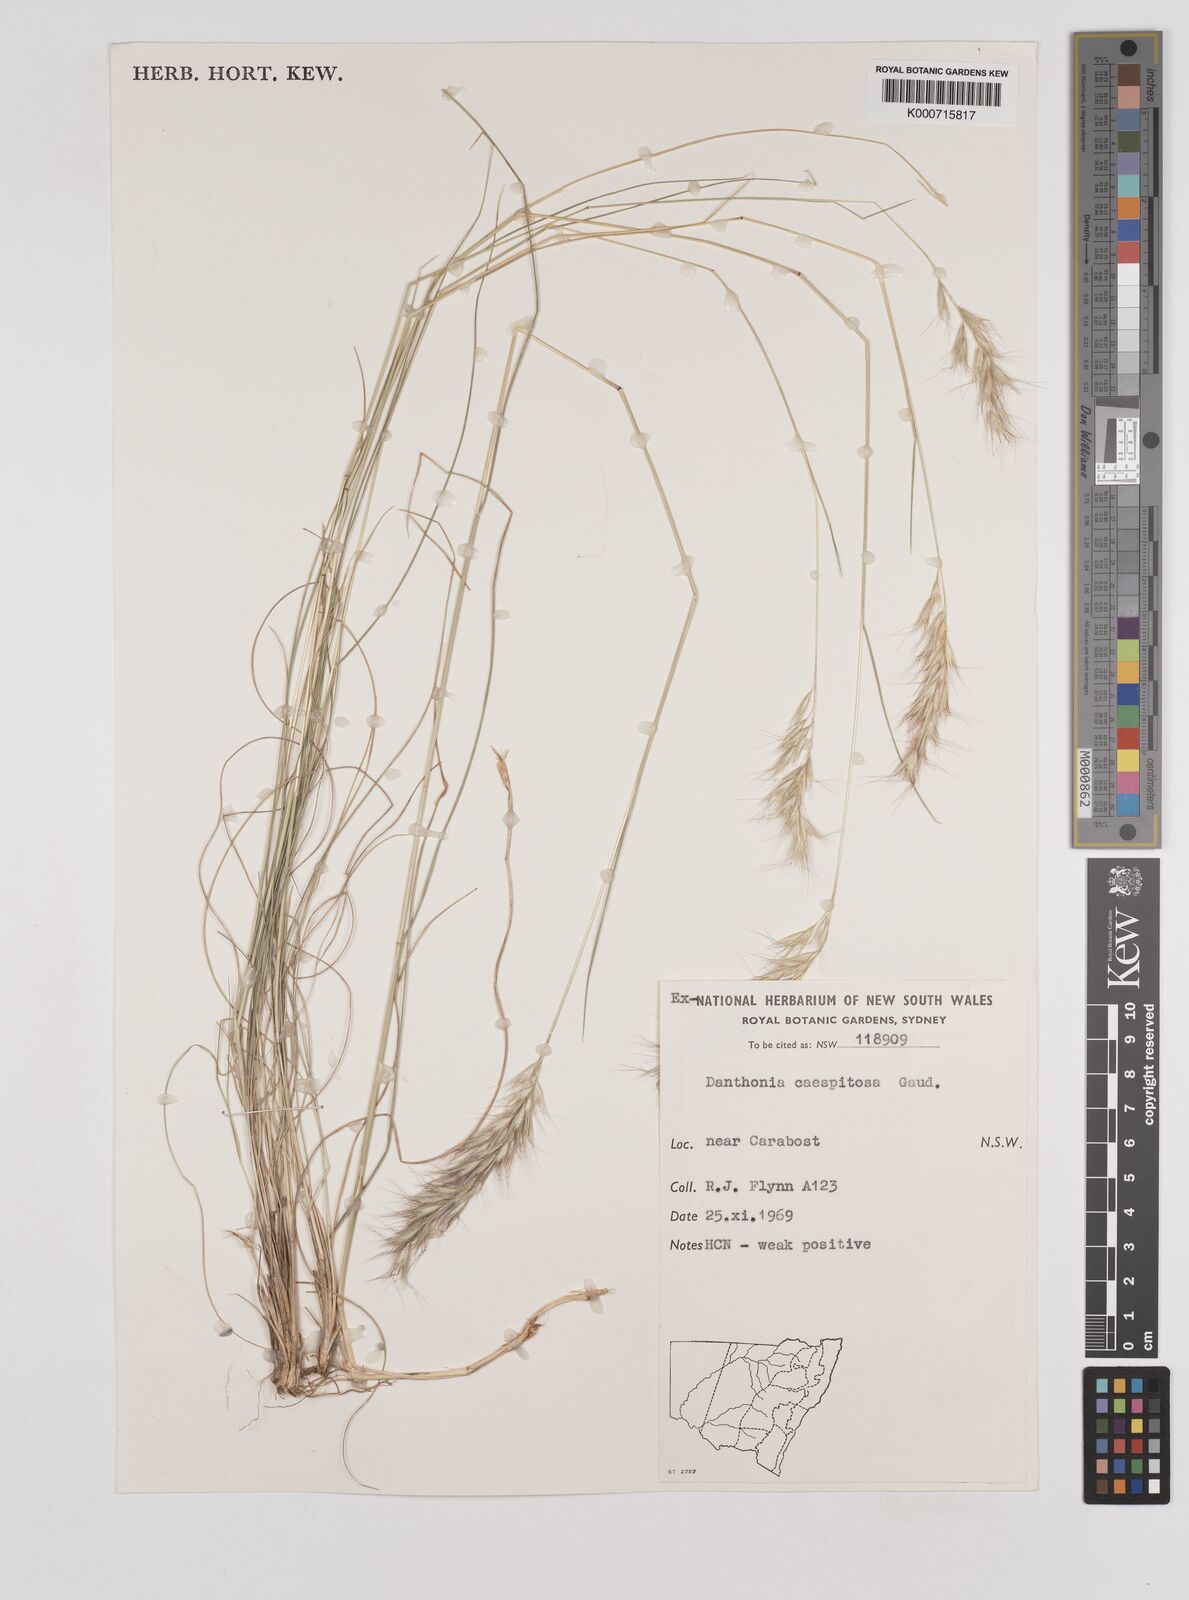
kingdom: Plantae
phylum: Tracheophyta
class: Liliopsida
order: Poales
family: Poaceae
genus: Rytidosperma
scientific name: Rytidosperma caespitosum
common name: Tufted wallaby grass
